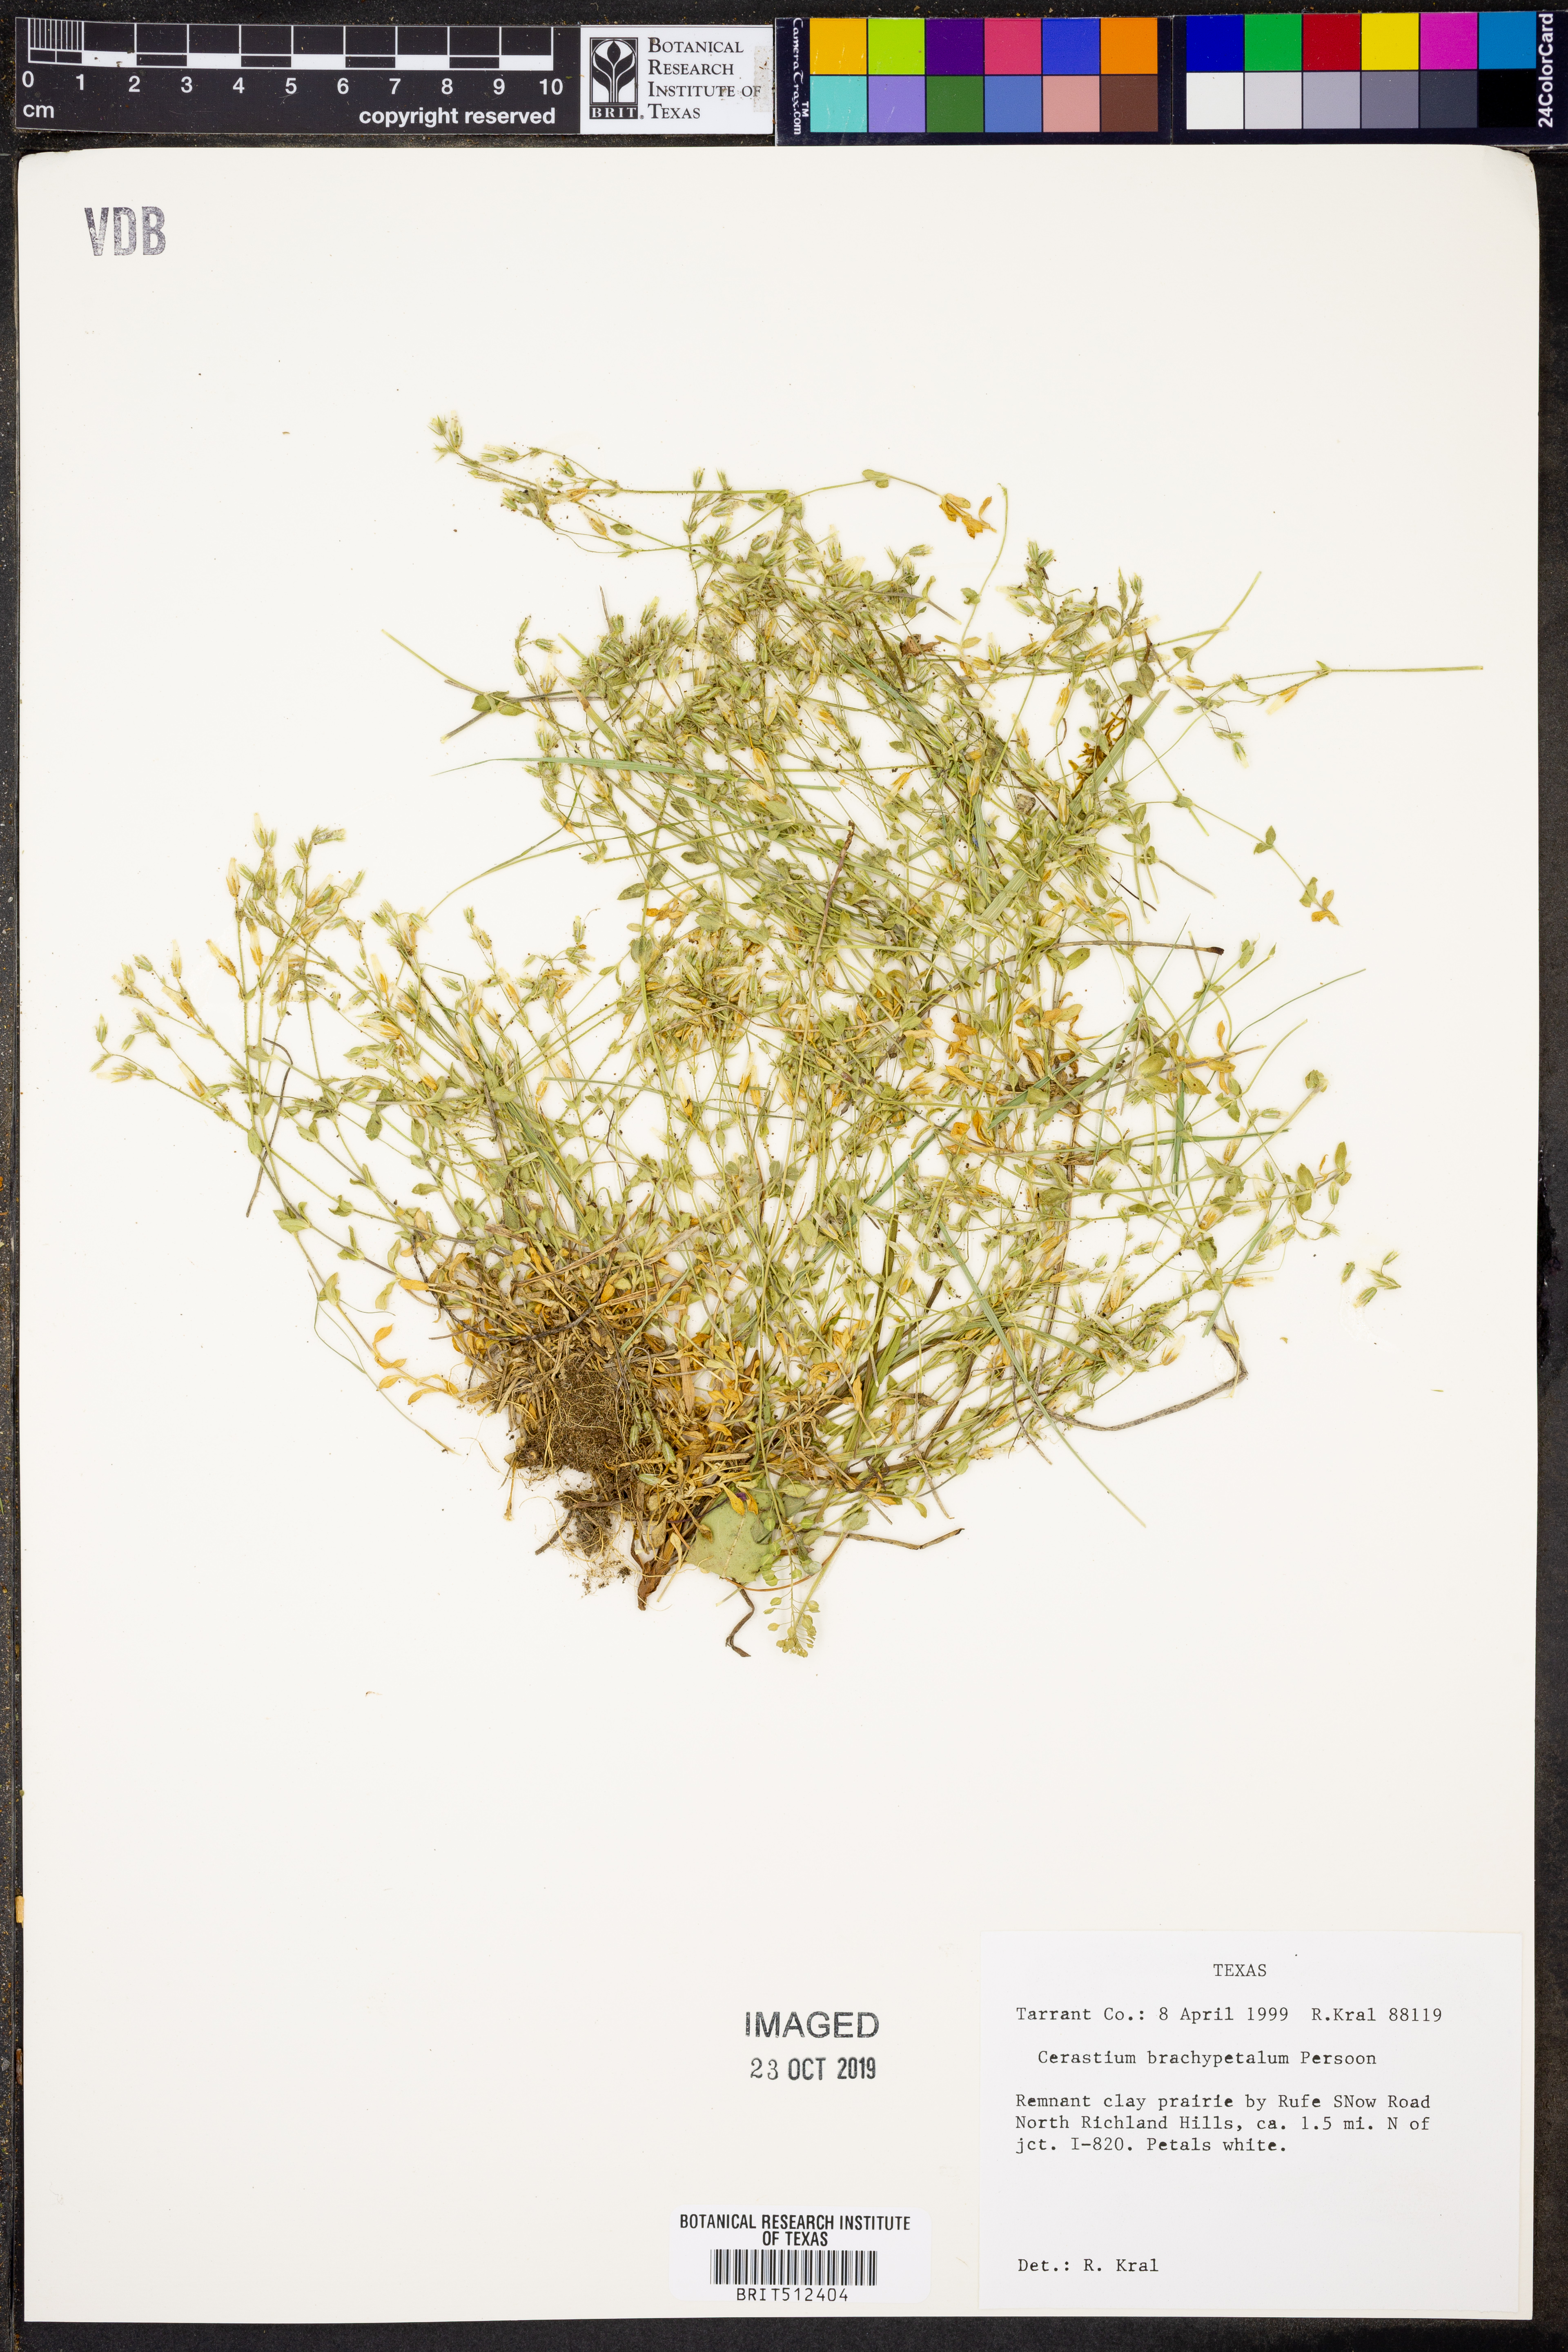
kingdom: Plantae
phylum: Tracheophyta
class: Magnoliopsida
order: Caryophyllales
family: Caryophyllaceae
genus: Cerastium
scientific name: Cerastium brachypetalum
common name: Grey mouse-ear
